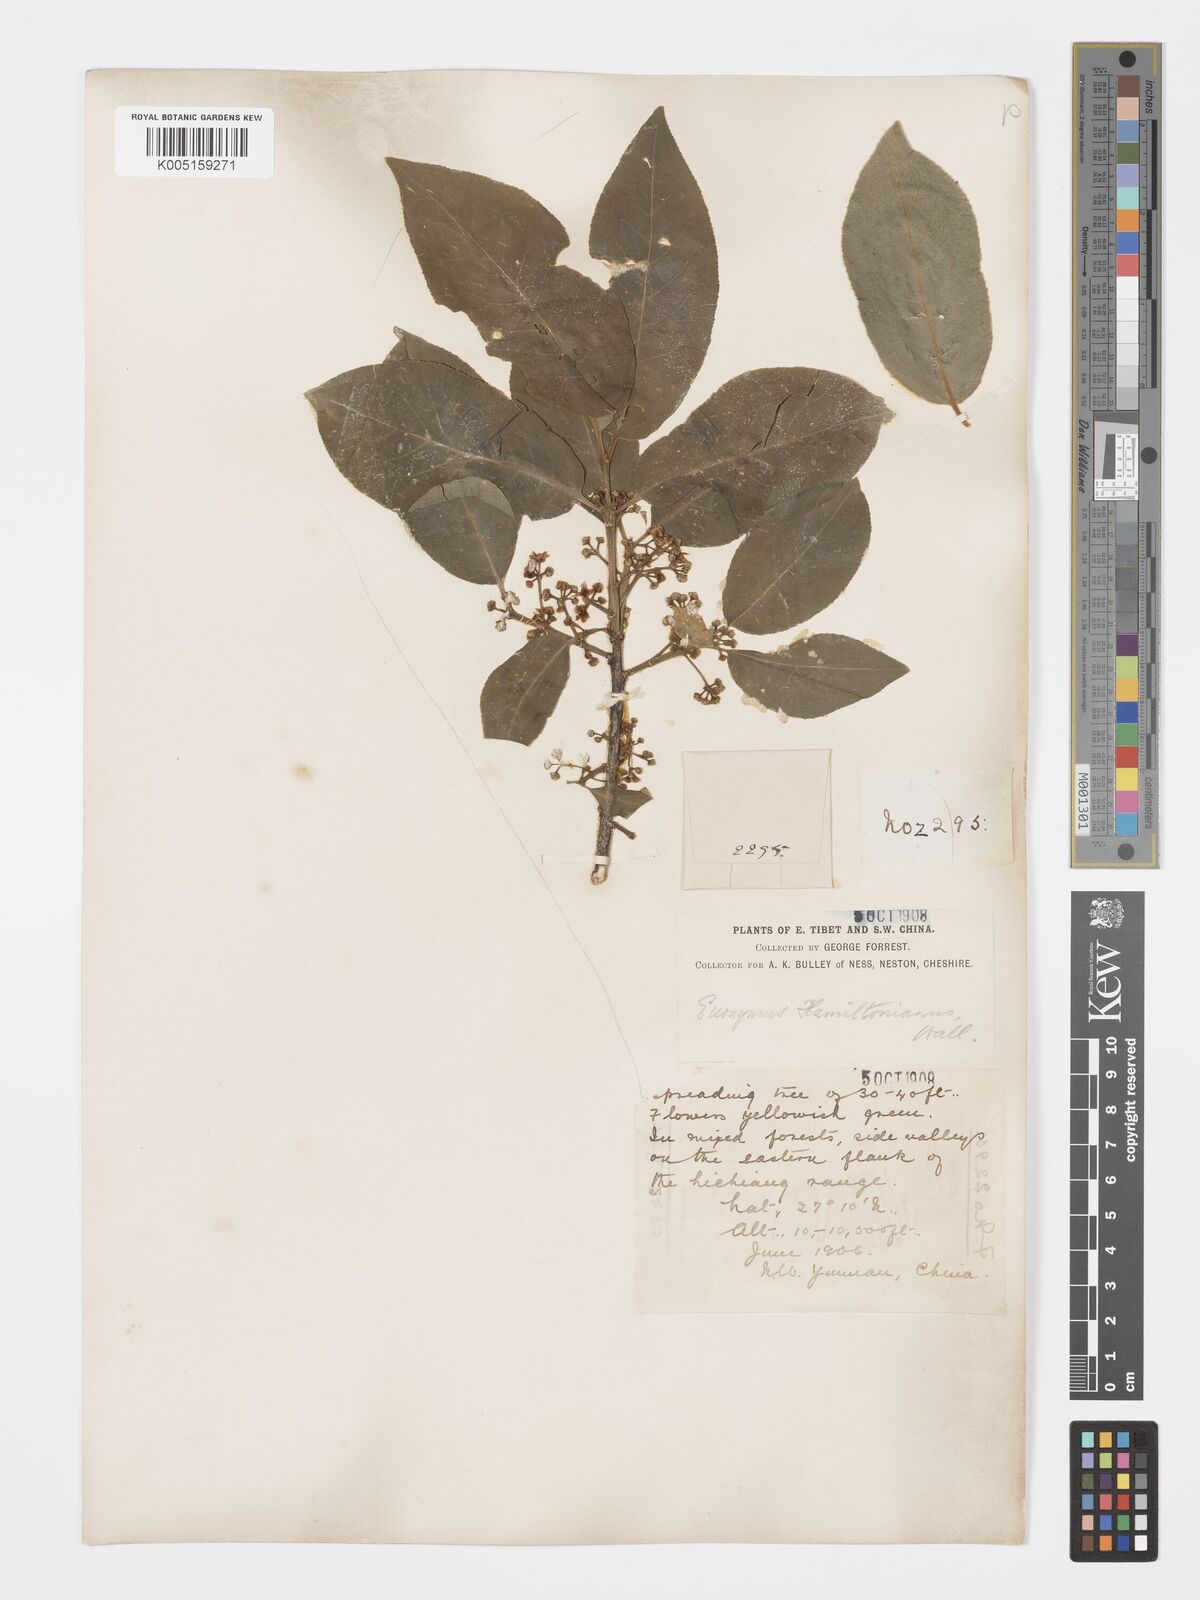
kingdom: Plantae
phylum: Tracheophyta
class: Magnoliopsida
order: Celastrales
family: Celastraceae
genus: Euonymus
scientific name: Euonymus hamiltonianus
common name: Hamilton's spindletree
